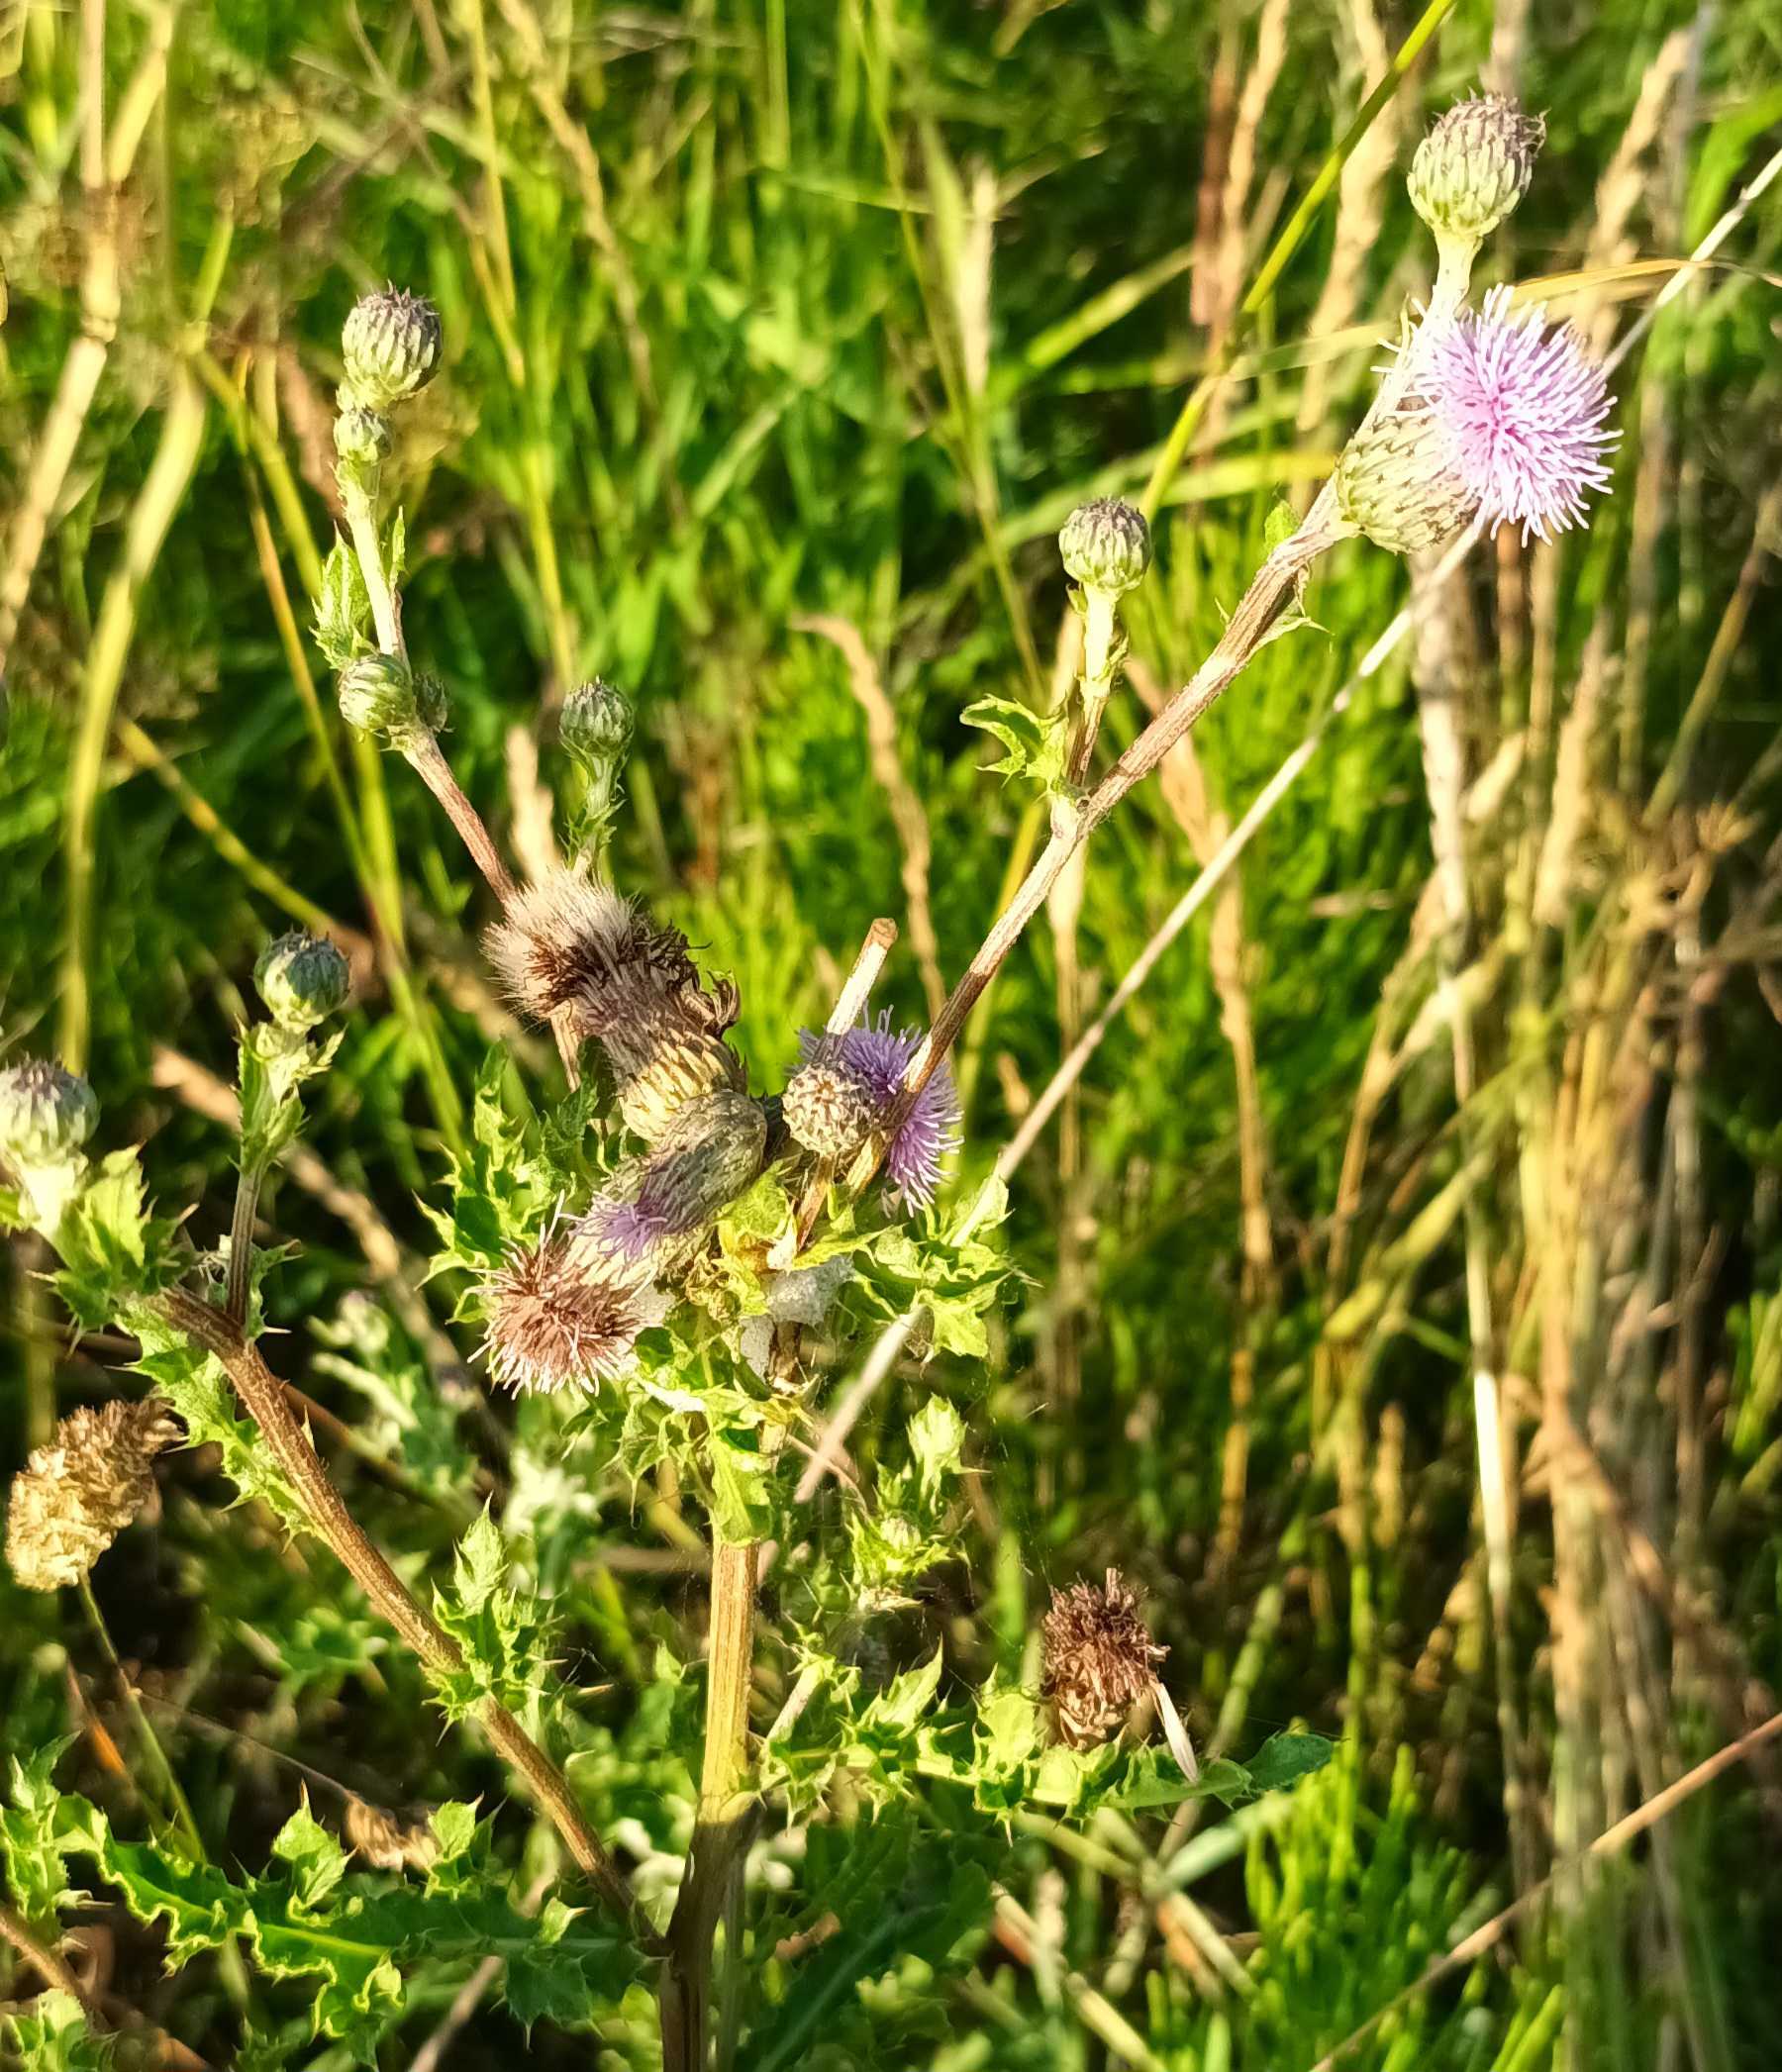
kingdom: Plantae
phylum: Tracheophyta
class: Magnoliopsida
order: Asterales
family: Asteraceae
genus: Cirsium
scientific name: Cirsium arvense
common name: Ager-tidsel
